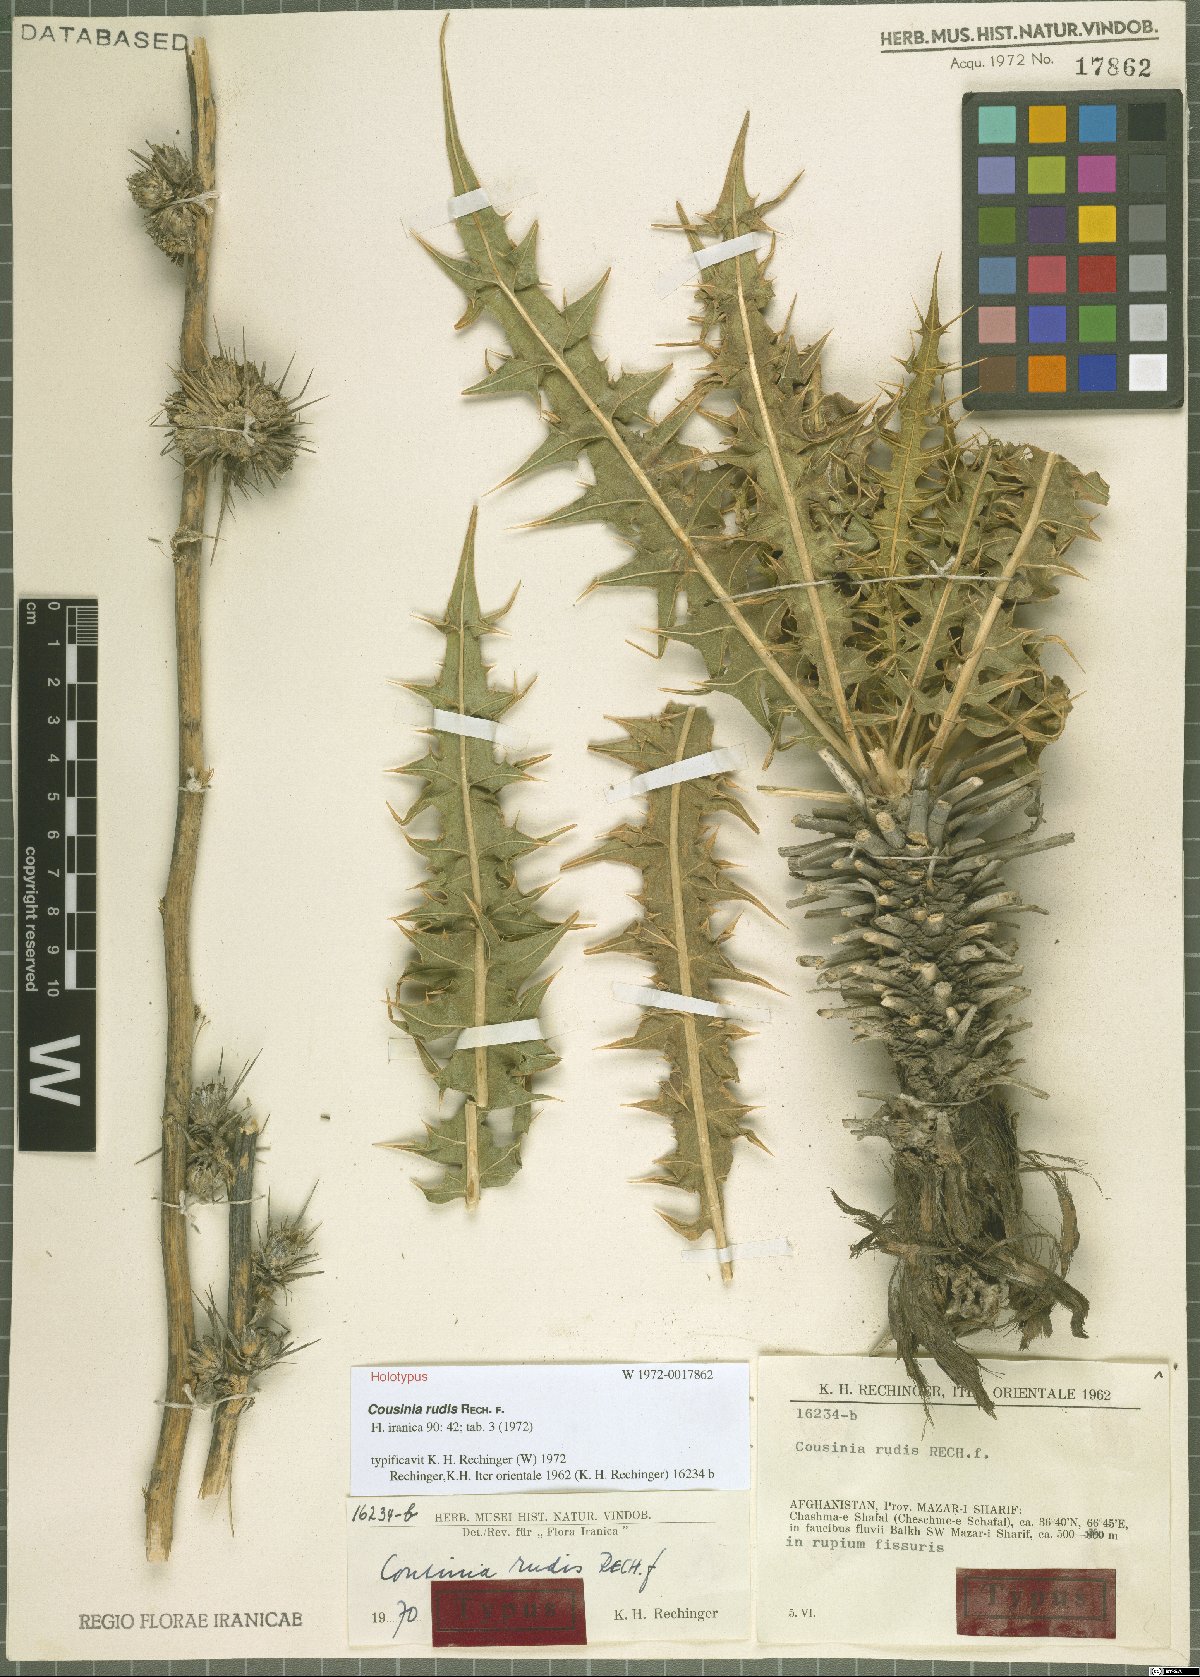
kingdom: Plantae
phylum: Tracheophyta
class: Magnoliopsida
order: Asterales
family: Asteraceae
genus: Cousinia
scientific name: Cousinia rudis
